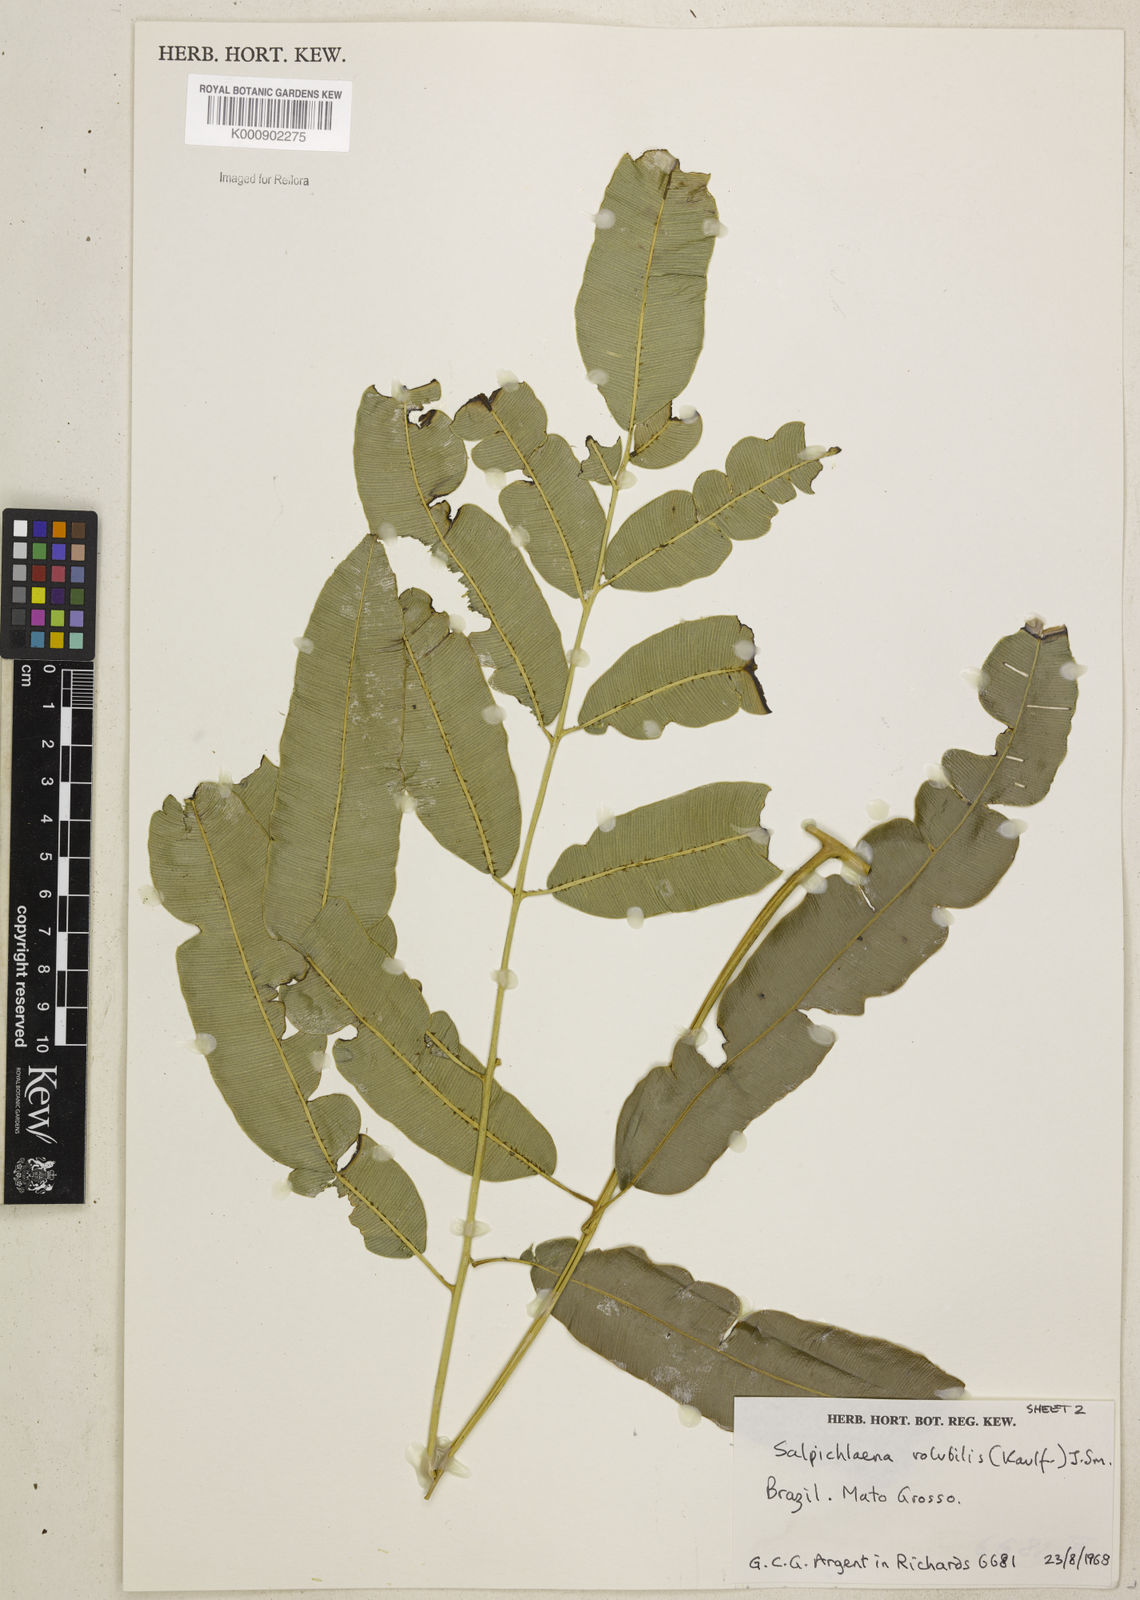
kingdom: Plantae
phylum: Tracheophyta
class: Polypodiopsida
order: Polypodiales
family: Blechnaceae
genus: Salpichlaena
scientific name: Salpichlaena volubilis
